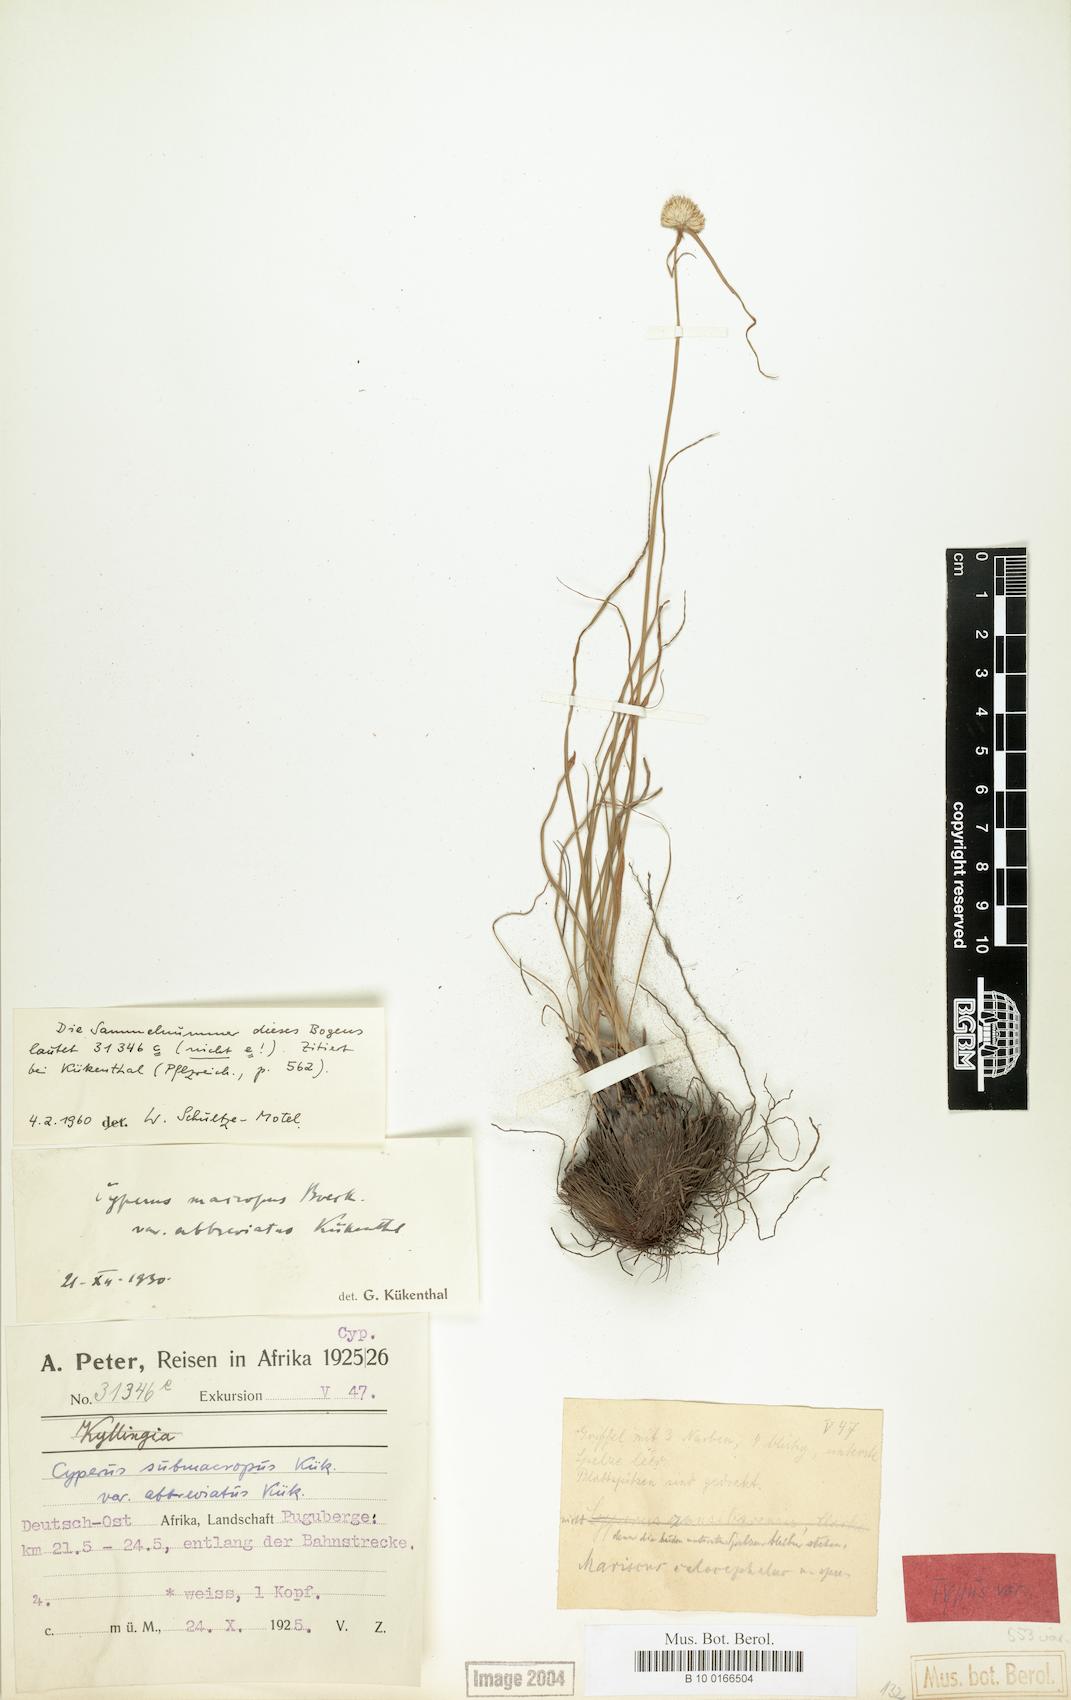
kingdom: Plantae
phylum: Tracheophyta
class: Liliopsida
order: Poales
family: Cyperaceae
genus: Cyperus
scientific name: Cyperus mollipes
